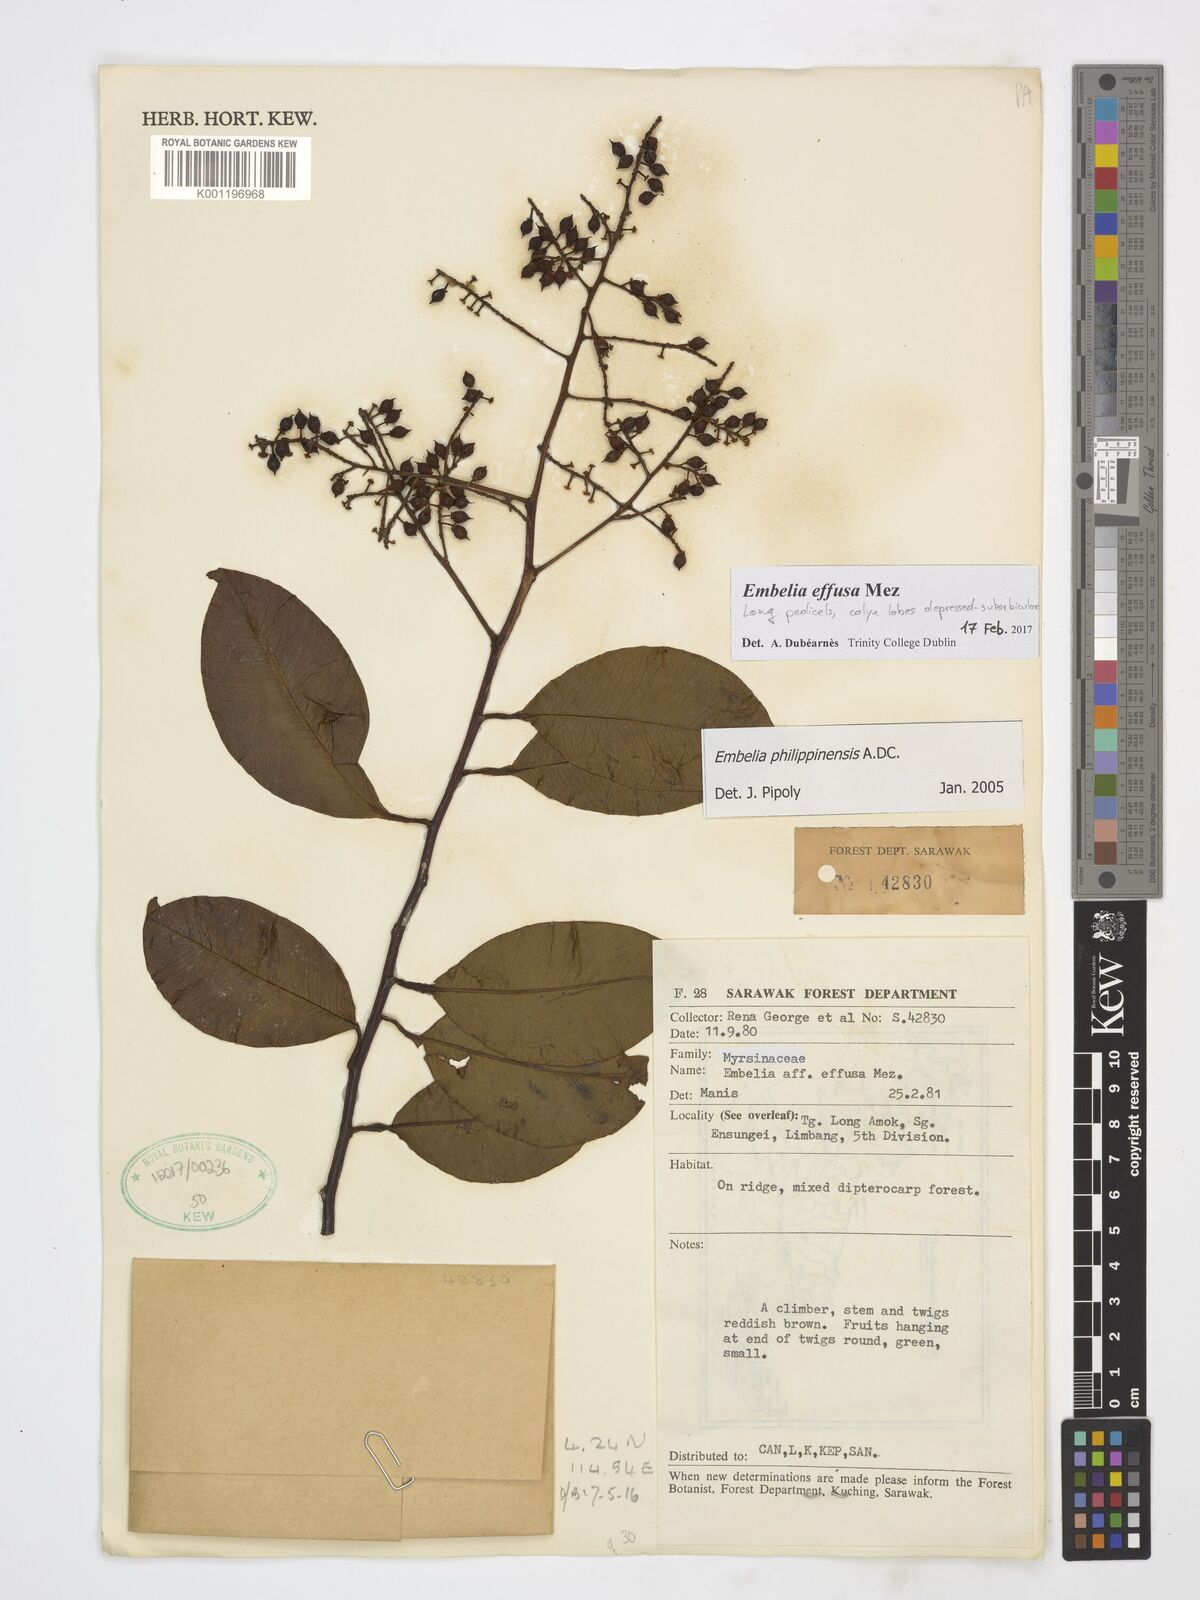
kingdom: Plantae
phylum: Tracheophyta
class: Magnoliopsida
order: Ericales
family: Primulaceae
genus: Embelia
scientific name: Embelia effusa
